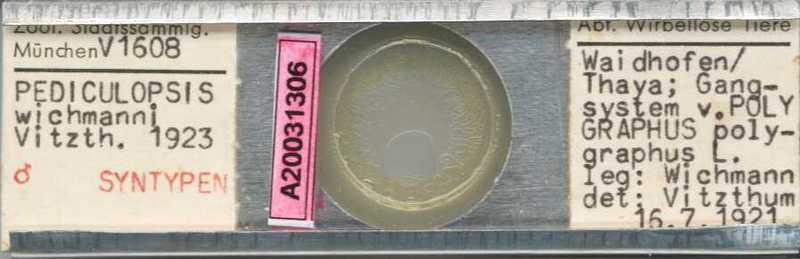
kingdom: Animalia
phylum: Arthropoda
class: Arachnida
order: Trombidiformes
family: Siteroptidae
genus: Pediculopsis
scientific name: Pediculopsis
